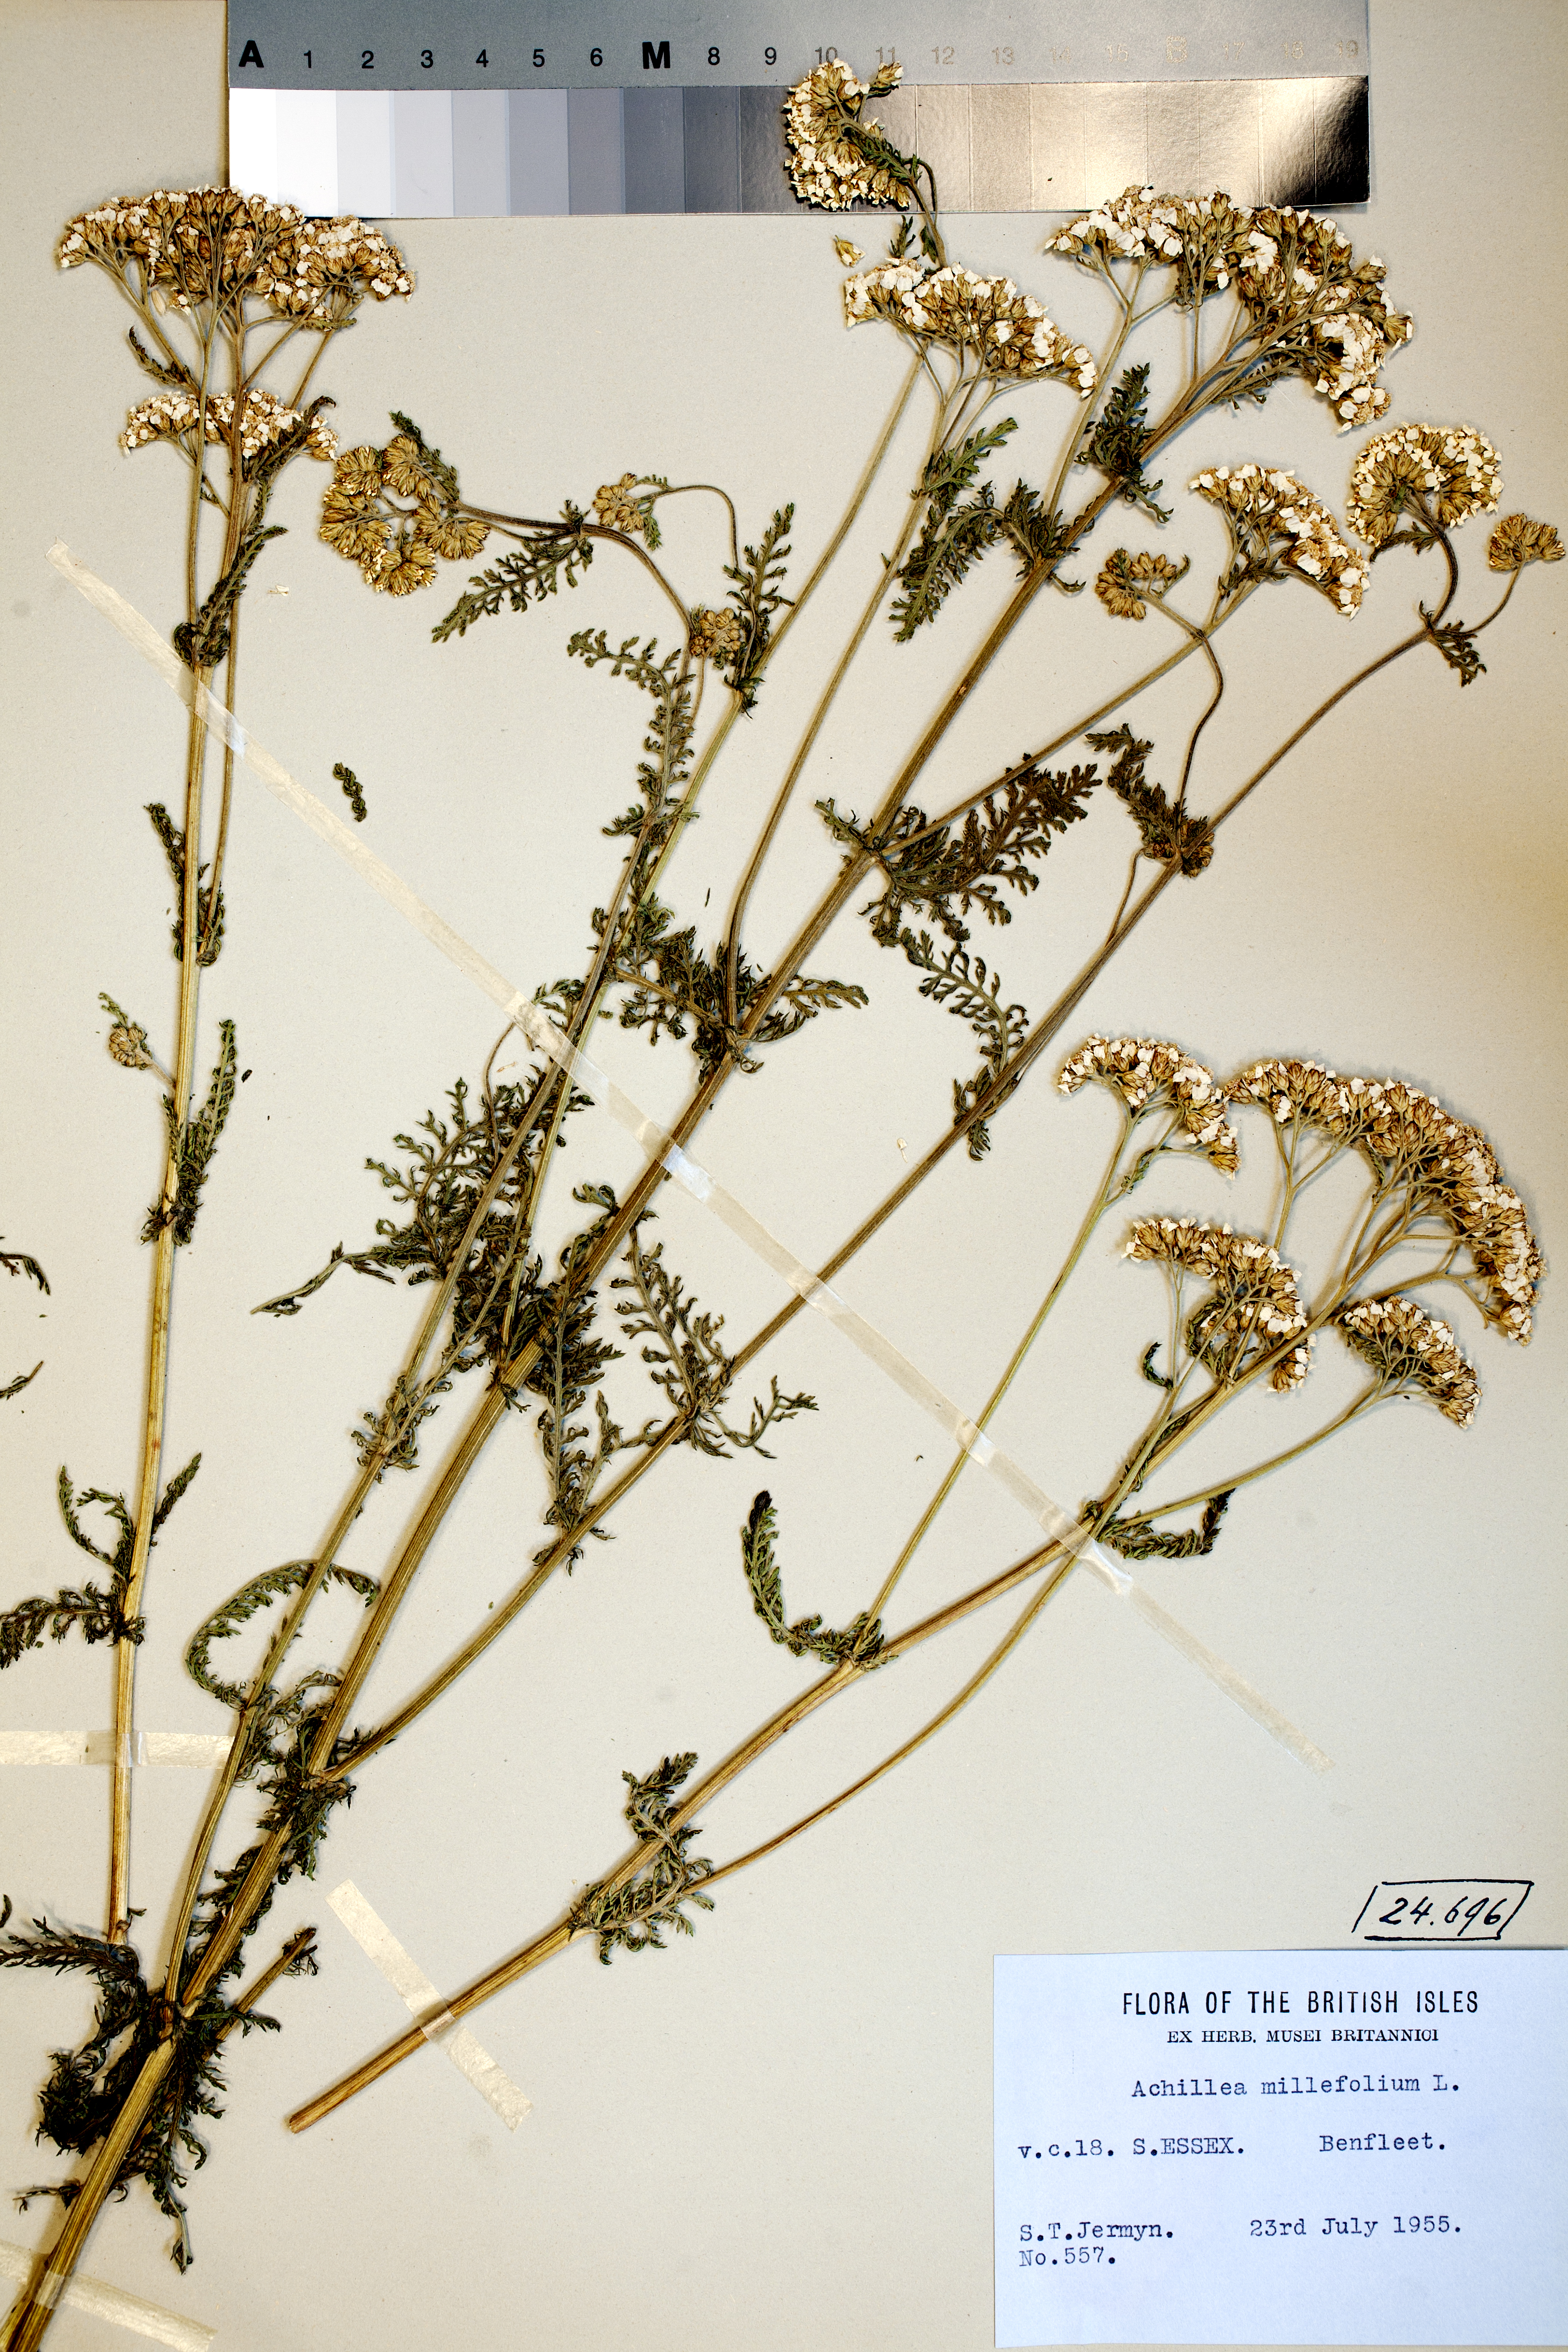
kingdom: Plantae
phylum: Tracheophyta
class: Magnoliopsida
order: Asterales
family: Asteraceae
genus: Achillea
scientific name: Achillea millefolium
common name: Yarrow
